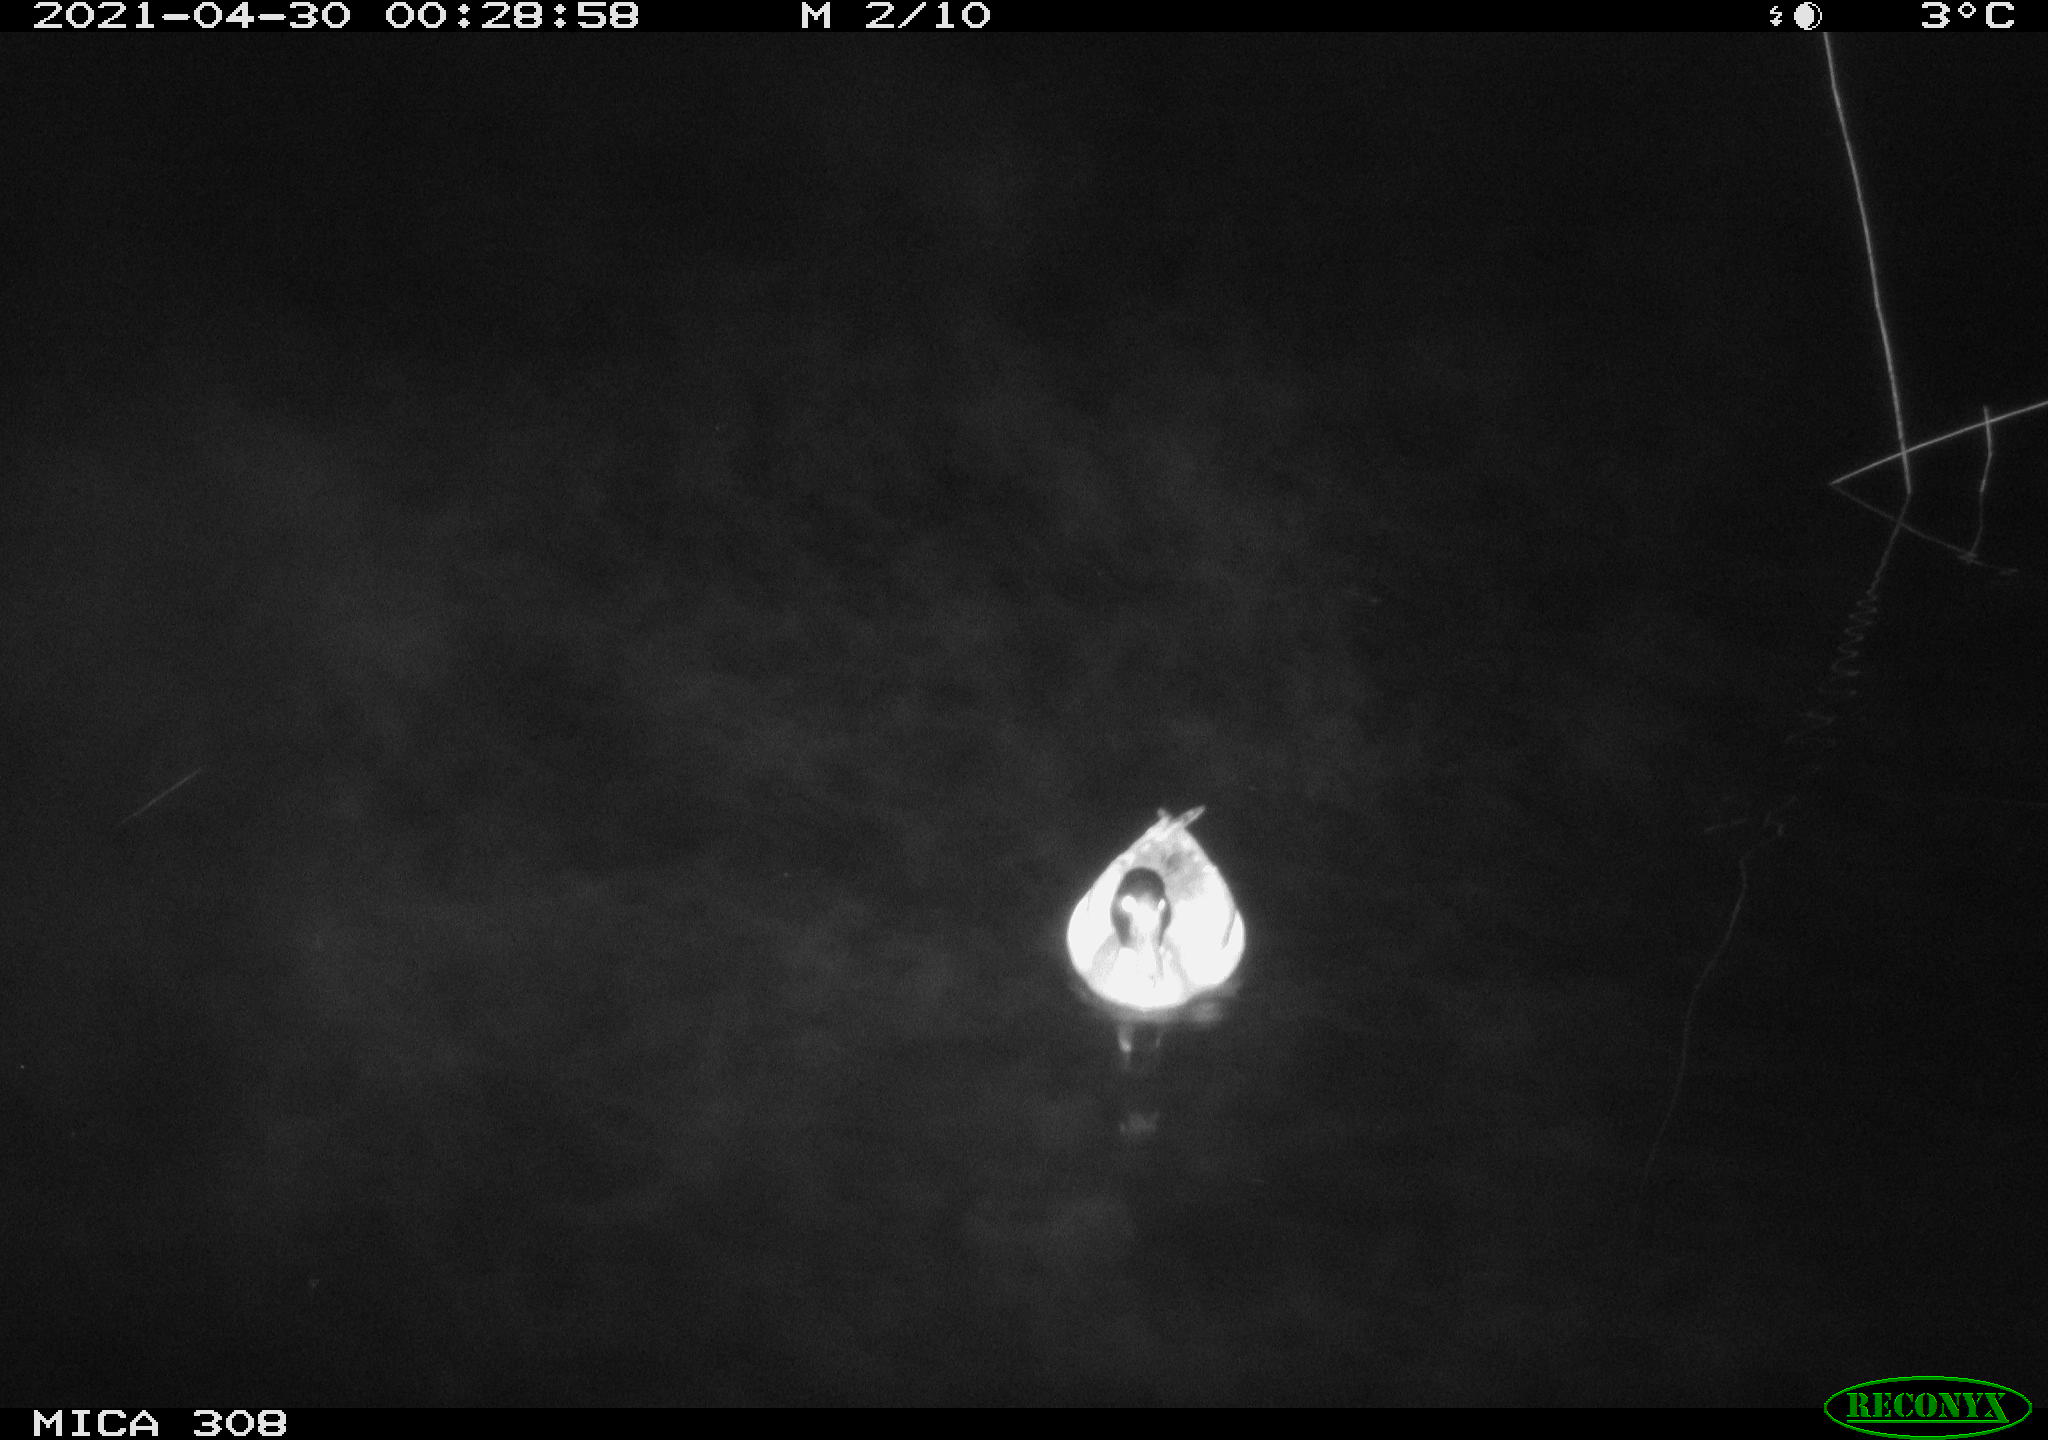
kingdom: Animalia
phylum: Chordata
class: Aves
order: Anseriformes
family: Anatidae
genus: Anas
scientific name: Anas platyrhynchos
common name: Mallard
